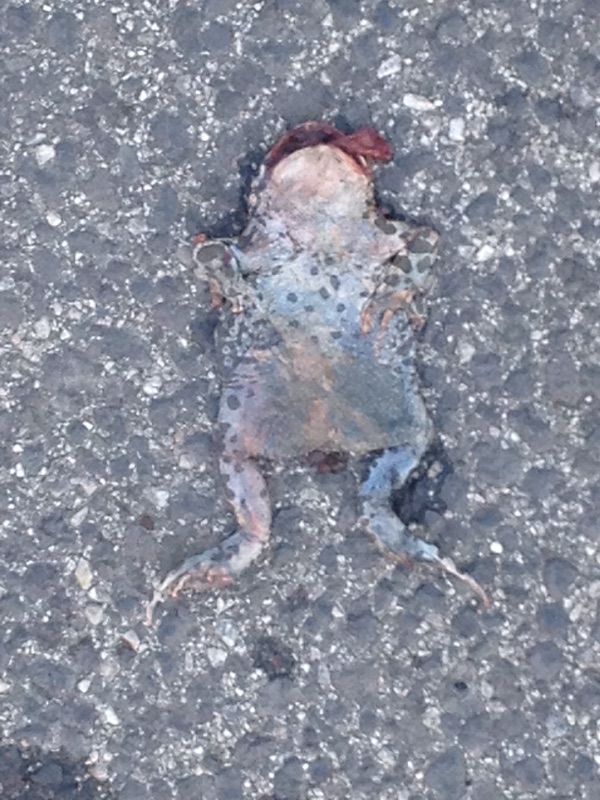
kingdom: Animalia
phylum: Chordata
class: Amphibia
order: Anura
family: Bufonidae
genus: Bufotes
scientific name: Bufotes viridis
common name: European green toad
